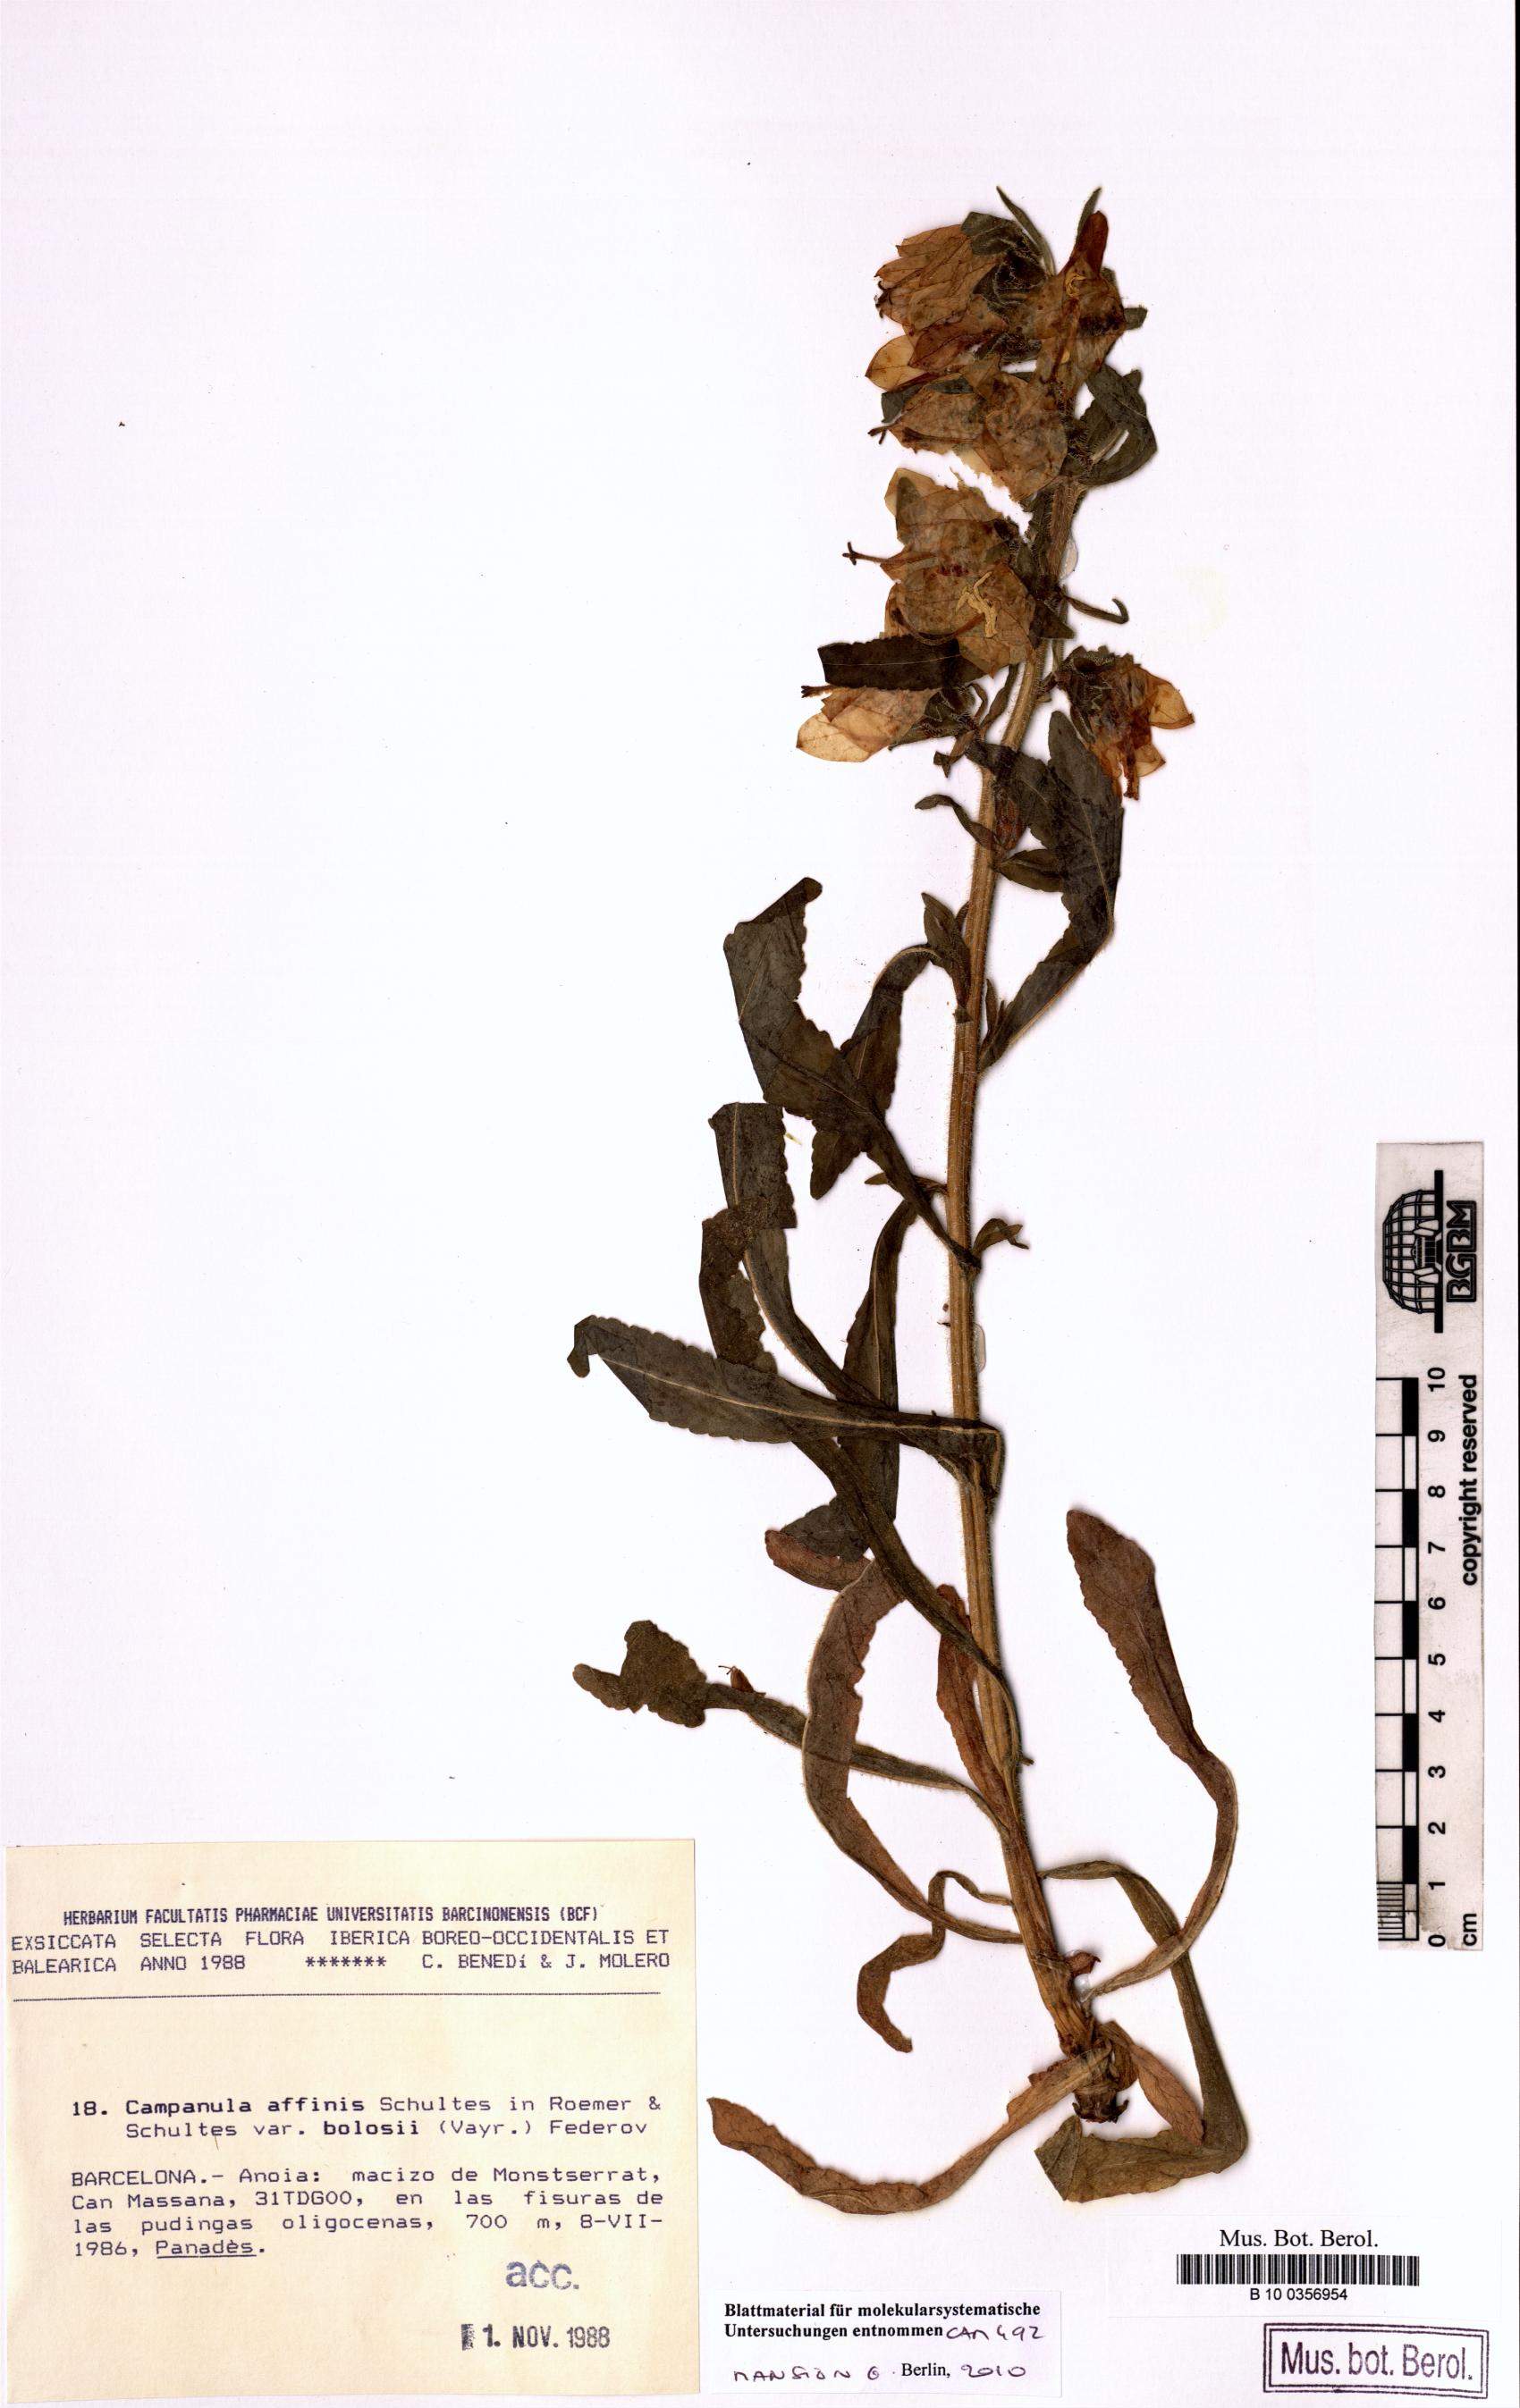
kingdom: Plantae
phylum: Tracheophyta
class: Magnoliopsida
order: Asterales
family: Campanulaceae
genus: Campanula
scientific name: Campanula speciosa
